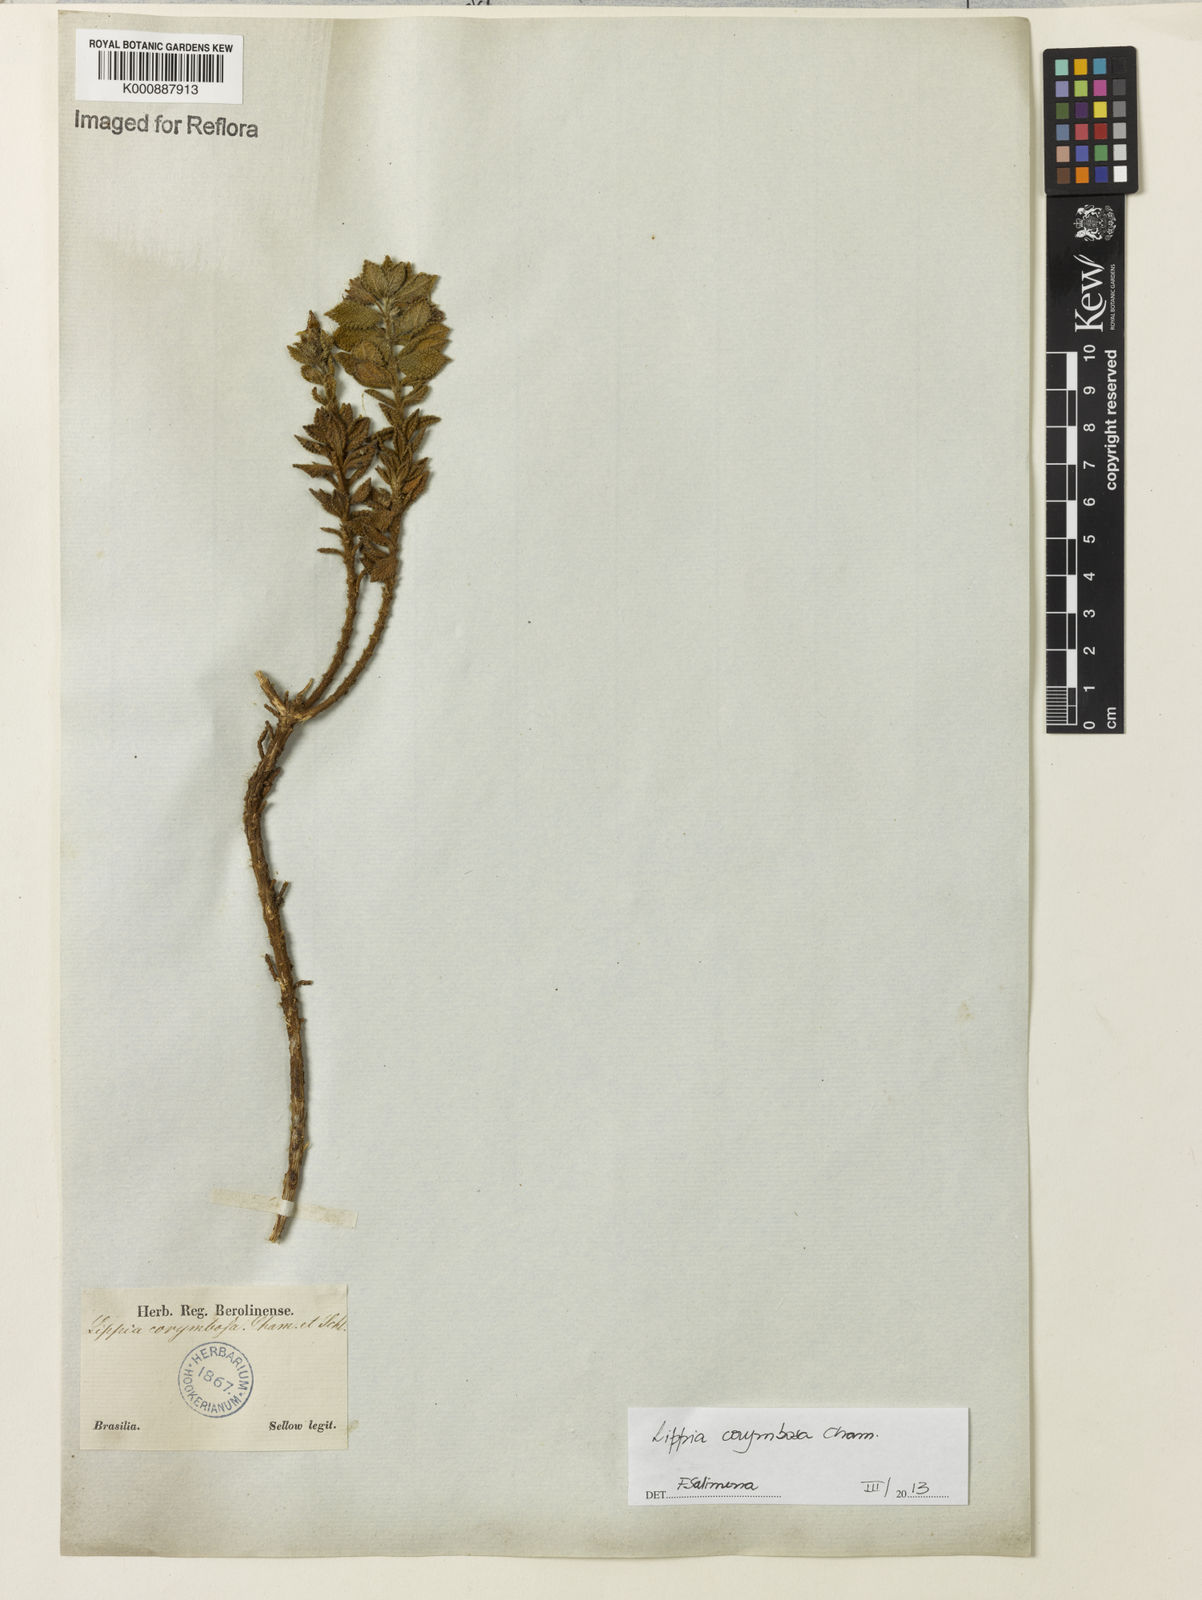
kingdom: Plantae
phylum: Tracheophyta
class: Magnoliopsida
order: Lamiales
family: Verbenaceae
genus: Lippia
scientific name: Lippia corymbosa
